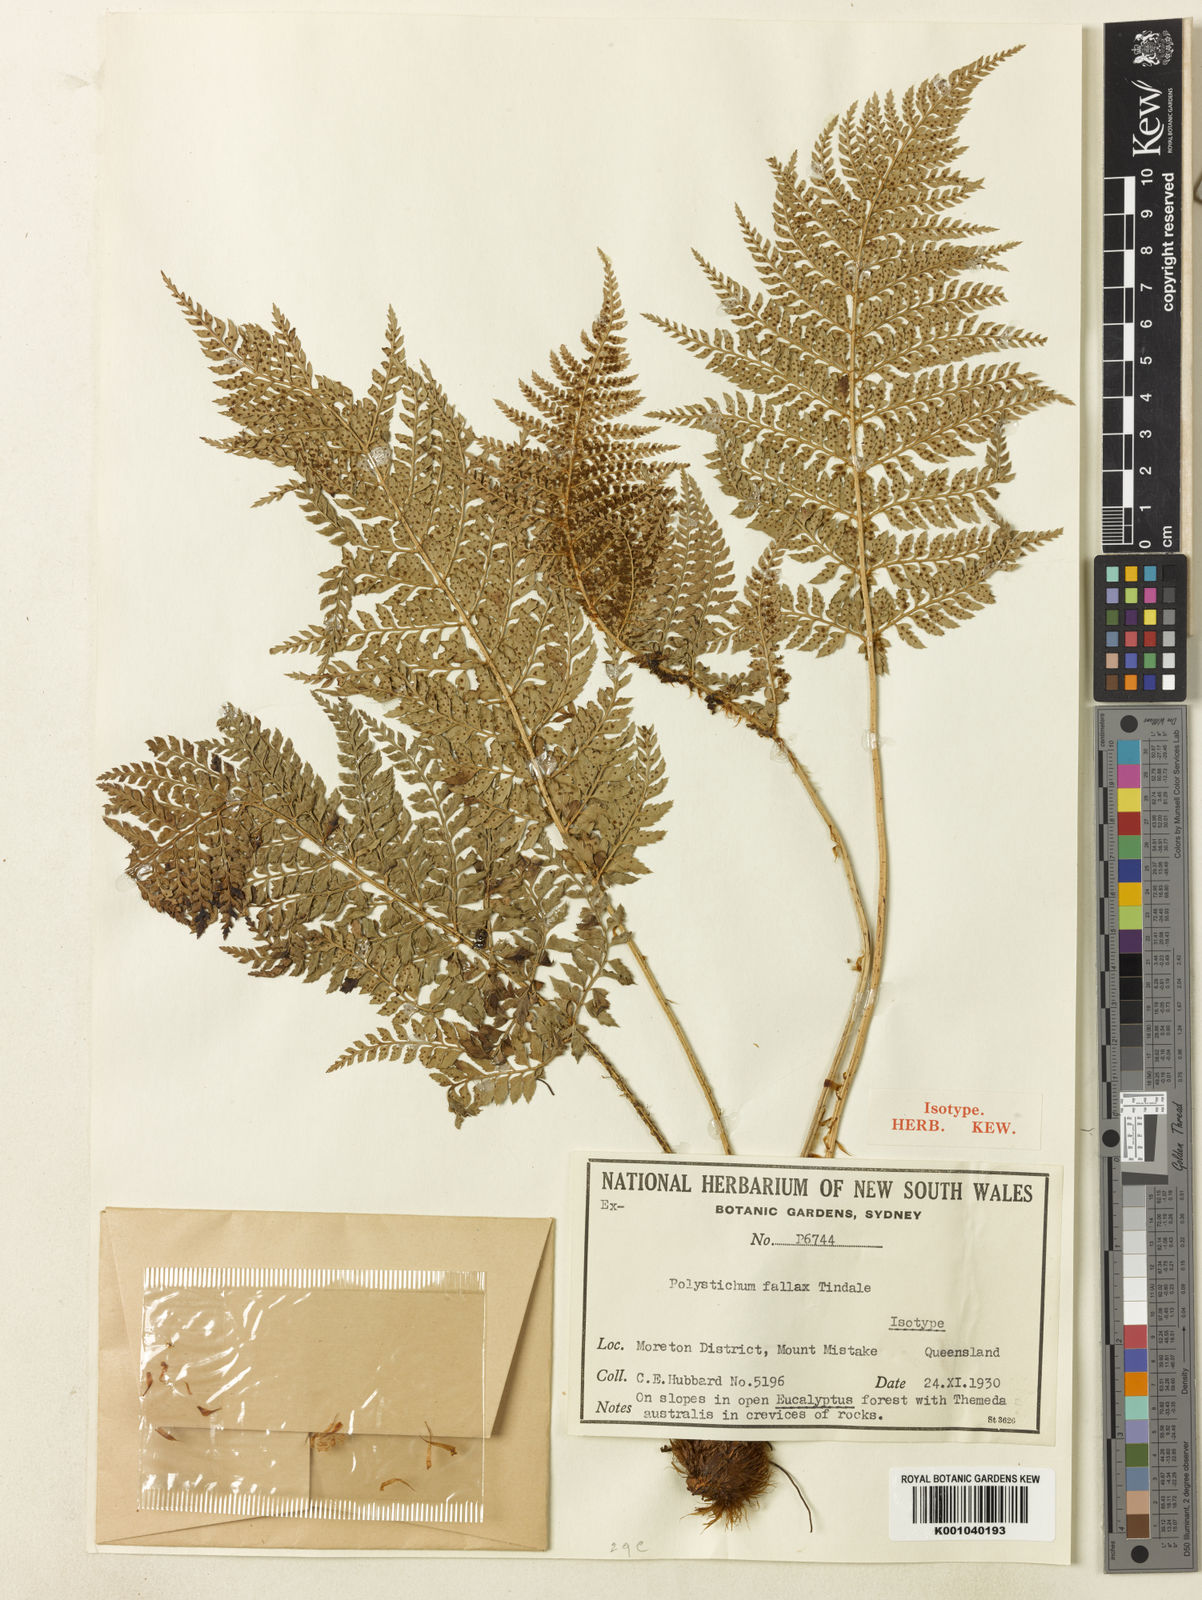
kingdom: Plantae
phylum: Tracheophyta
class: Polypodiopsida
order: Polypodiales
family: Dryopteridaceae
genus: Polystichum
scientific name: Polystichum fallax
